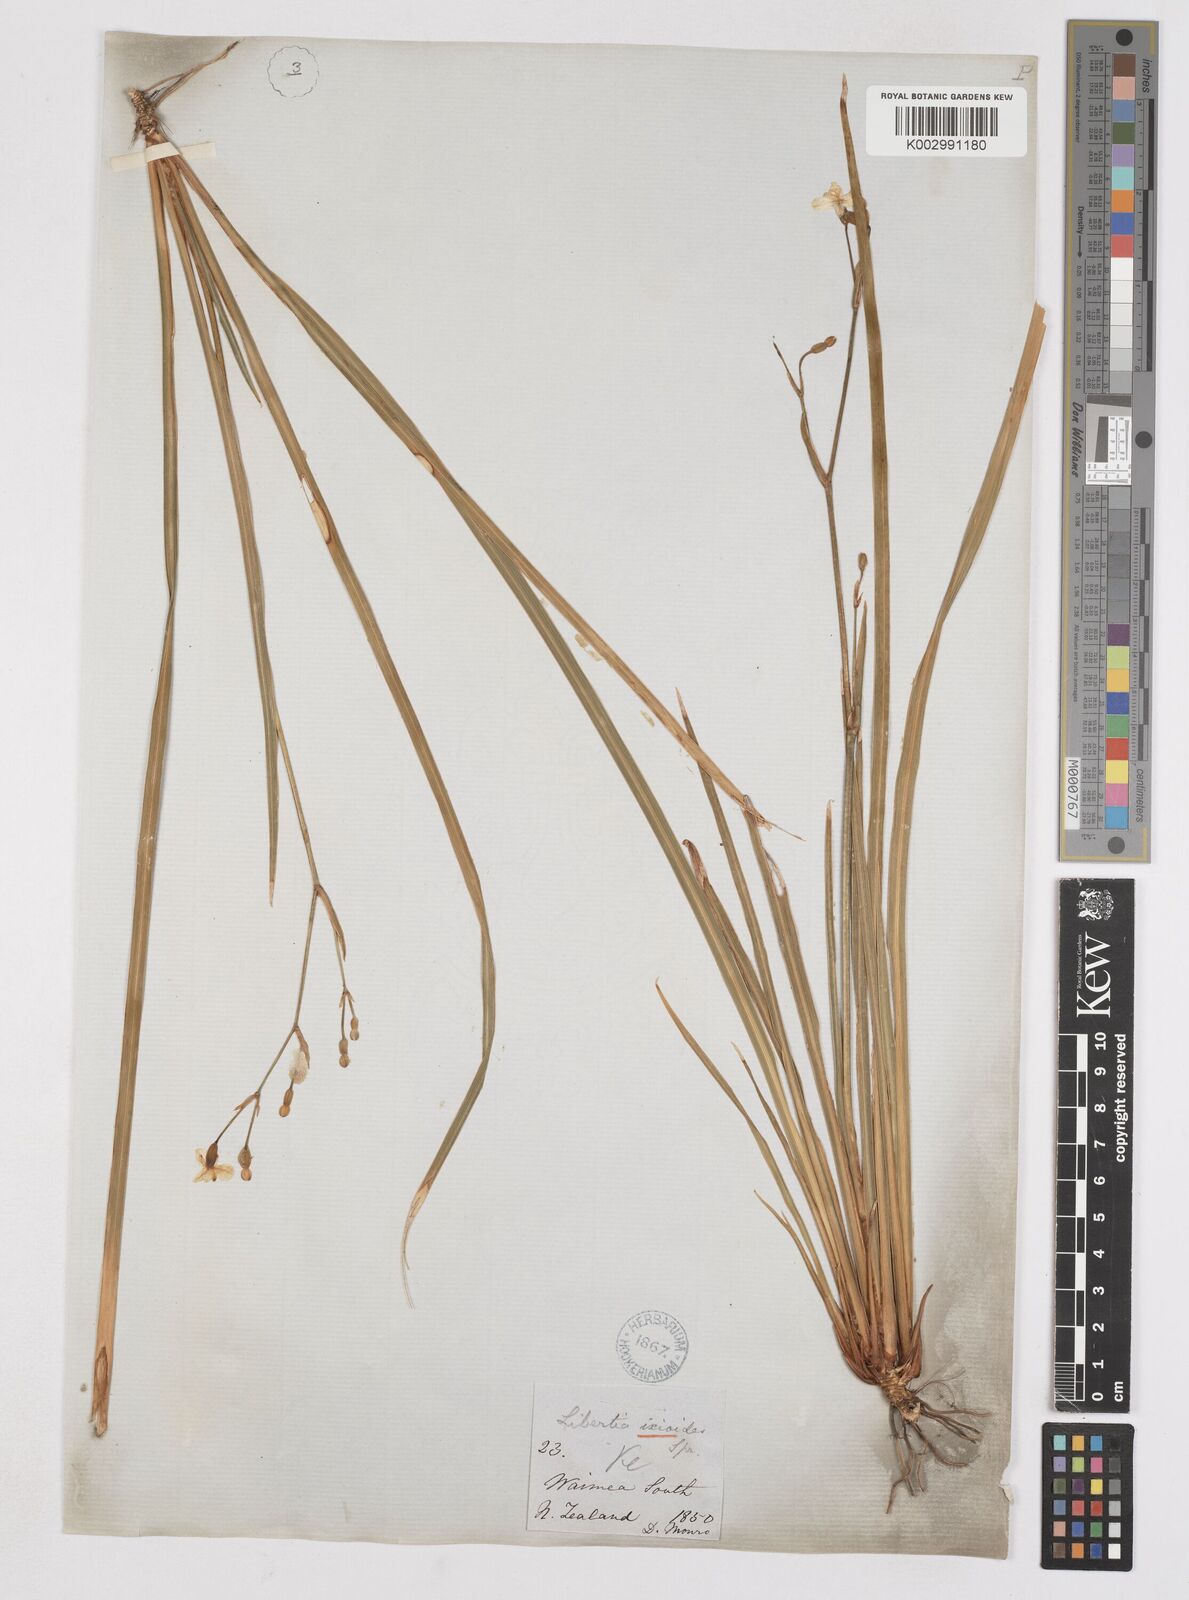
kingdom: Plantae
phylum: Tracheophyta
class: Liliopsida
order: Asparagales
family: Iridaceae
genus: Libertia
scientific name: Libertia ixioides
